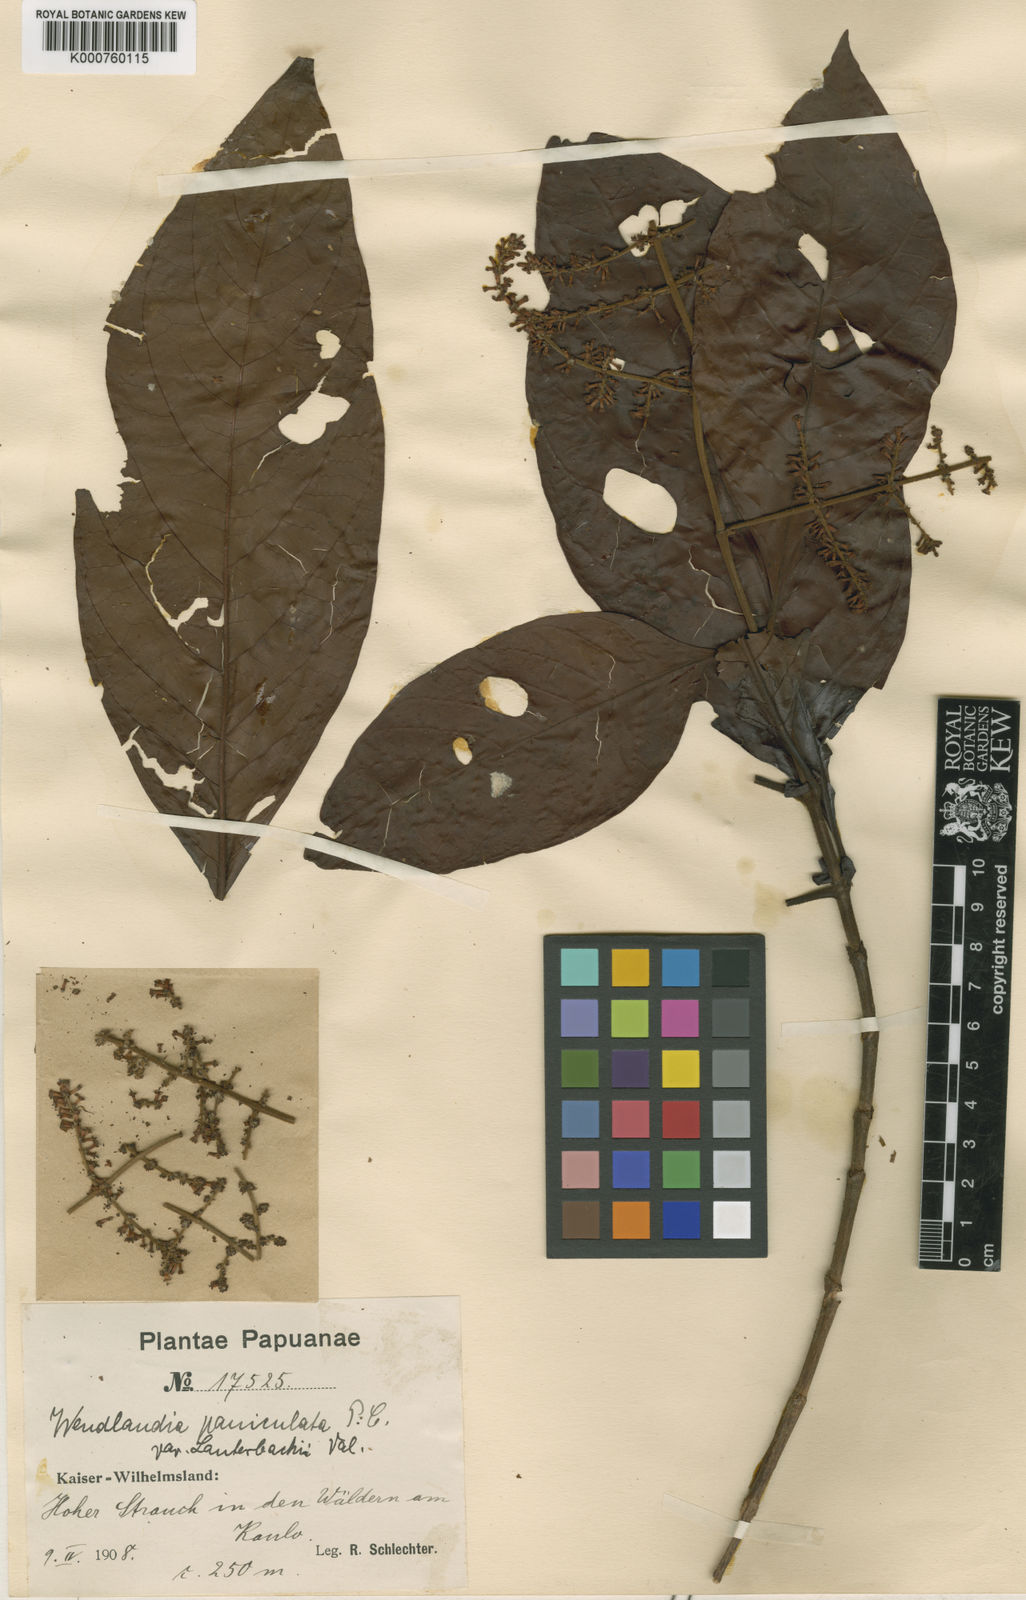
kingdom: Plantae
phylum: Tracheophyta
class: Magnoliopsida
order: Gentianales
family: Rubiaceae
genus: Wendlandia
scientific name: Wendlandia paniculata
